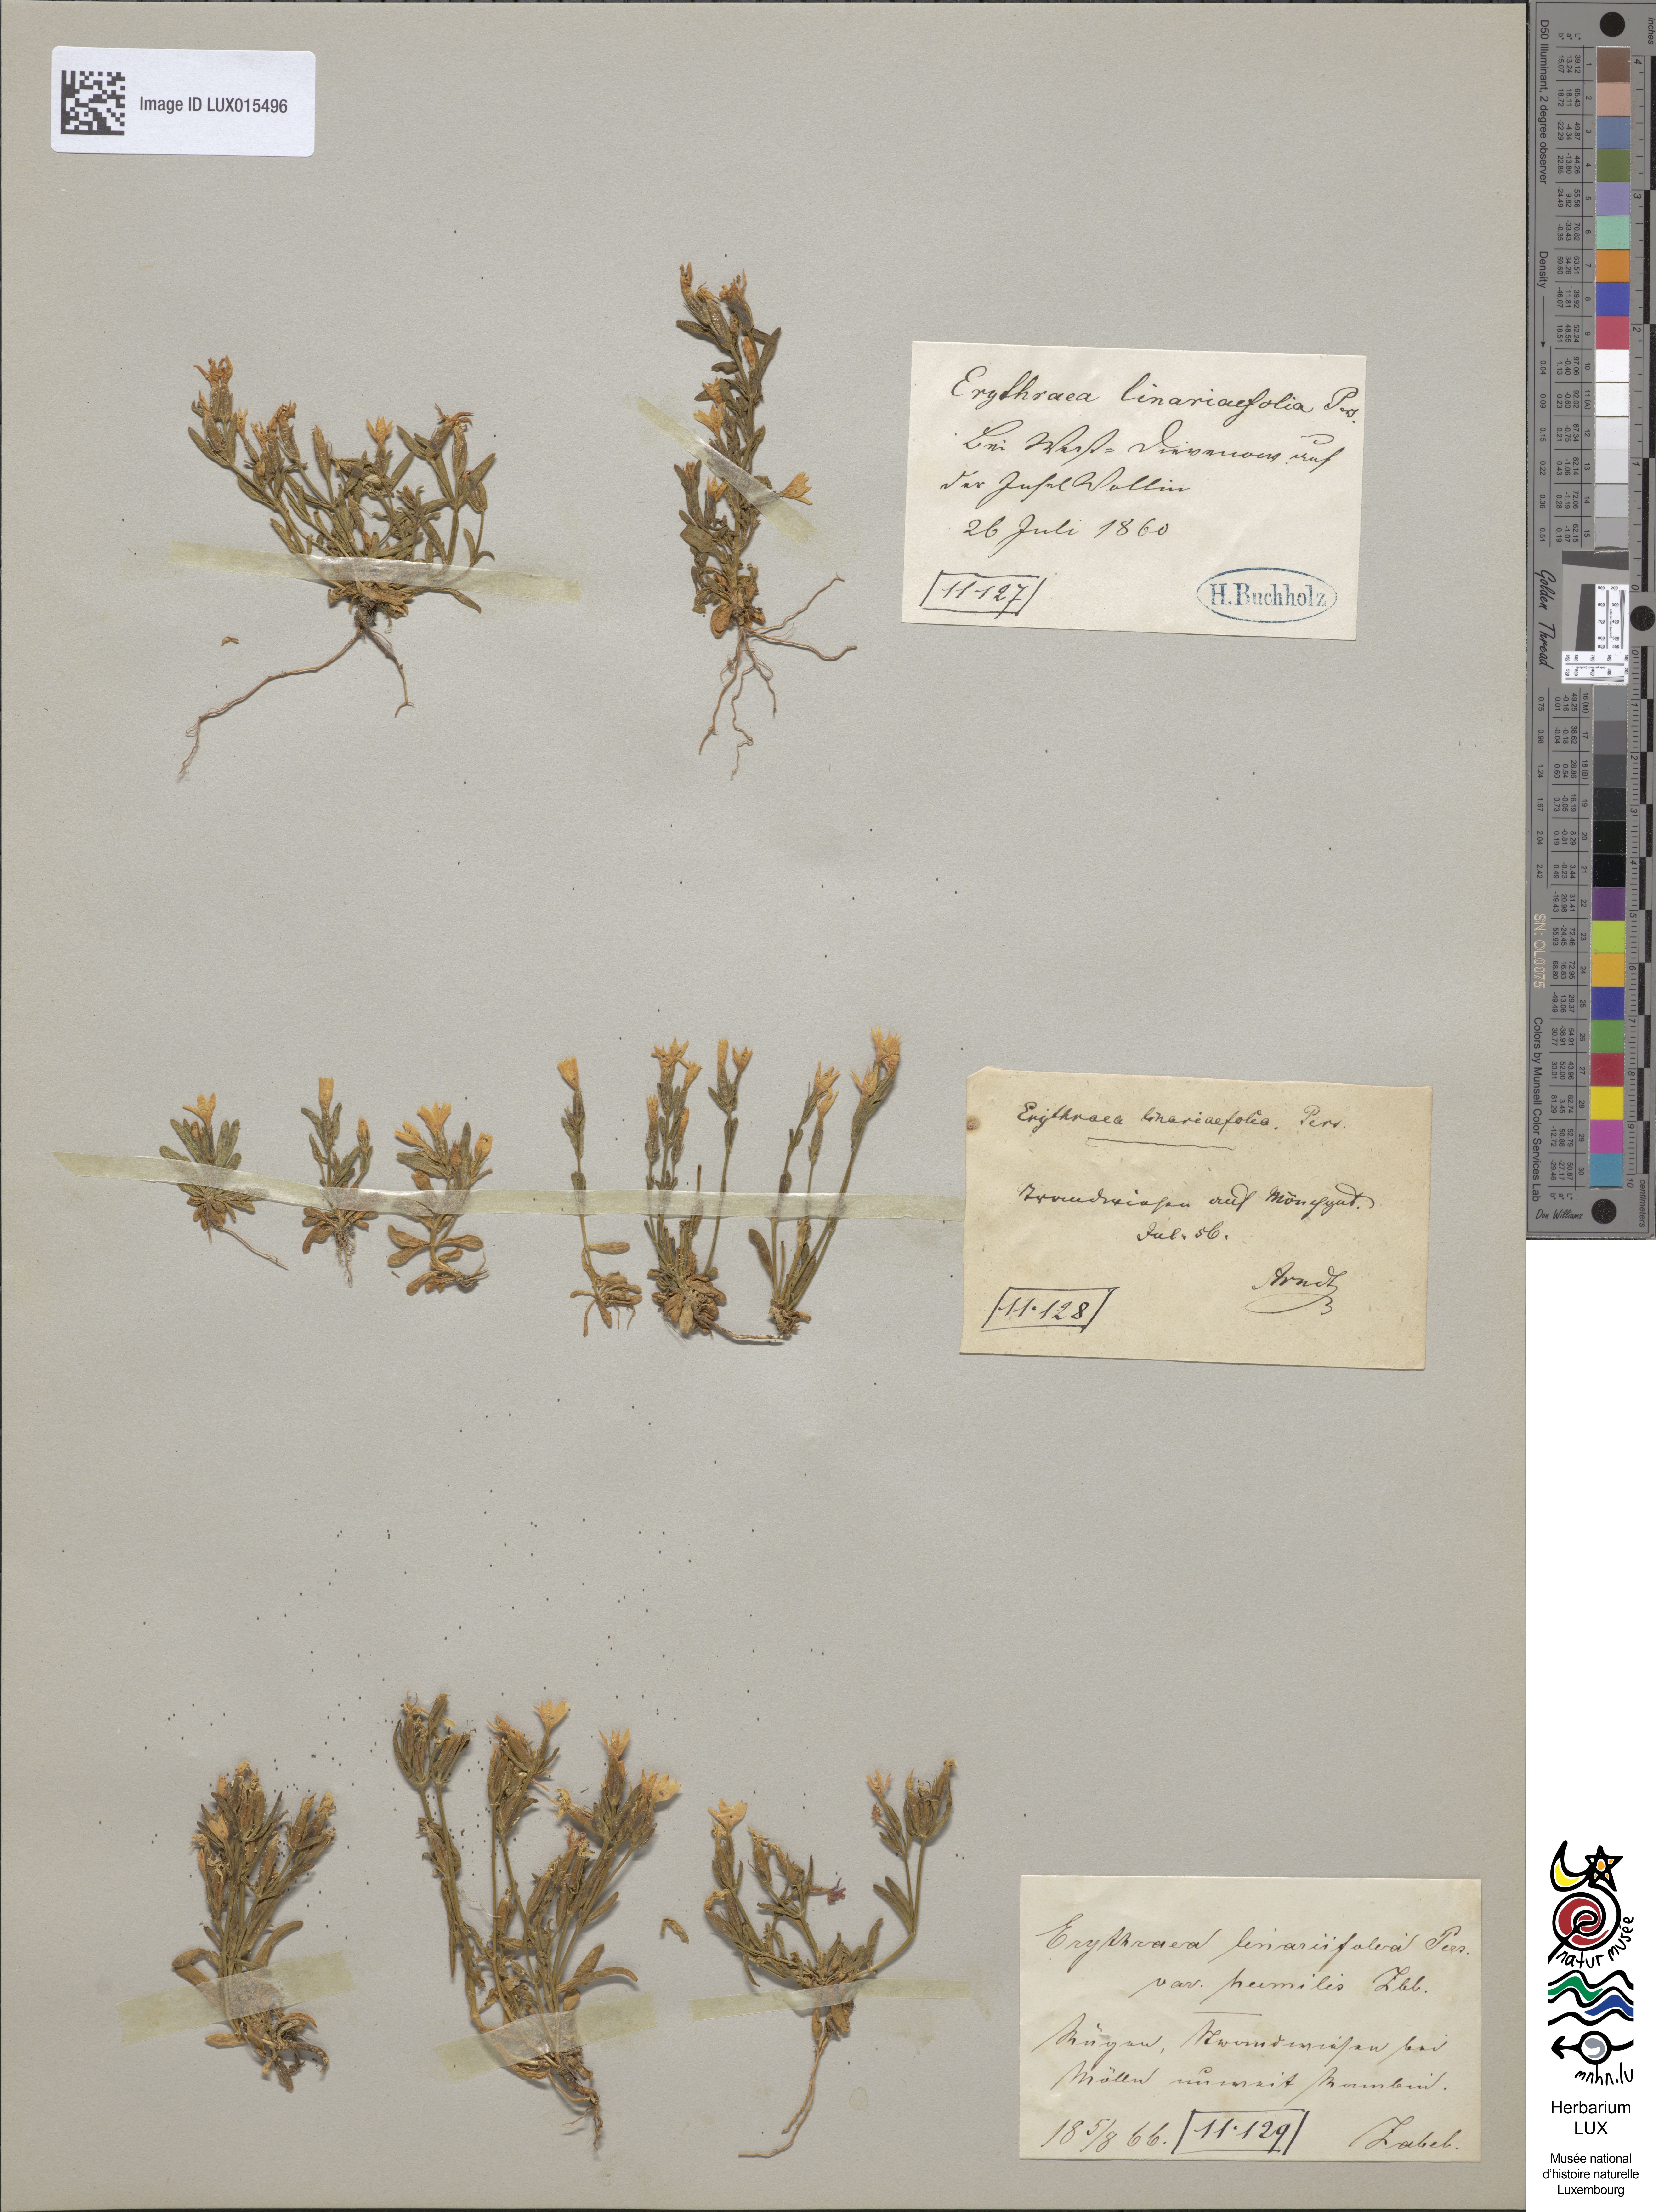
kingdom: Plantae
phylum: Tracheophyta
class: Magnoliopsida
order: Gentianales
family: Gentianaceae
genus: Centaurium
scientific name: Centaurium
